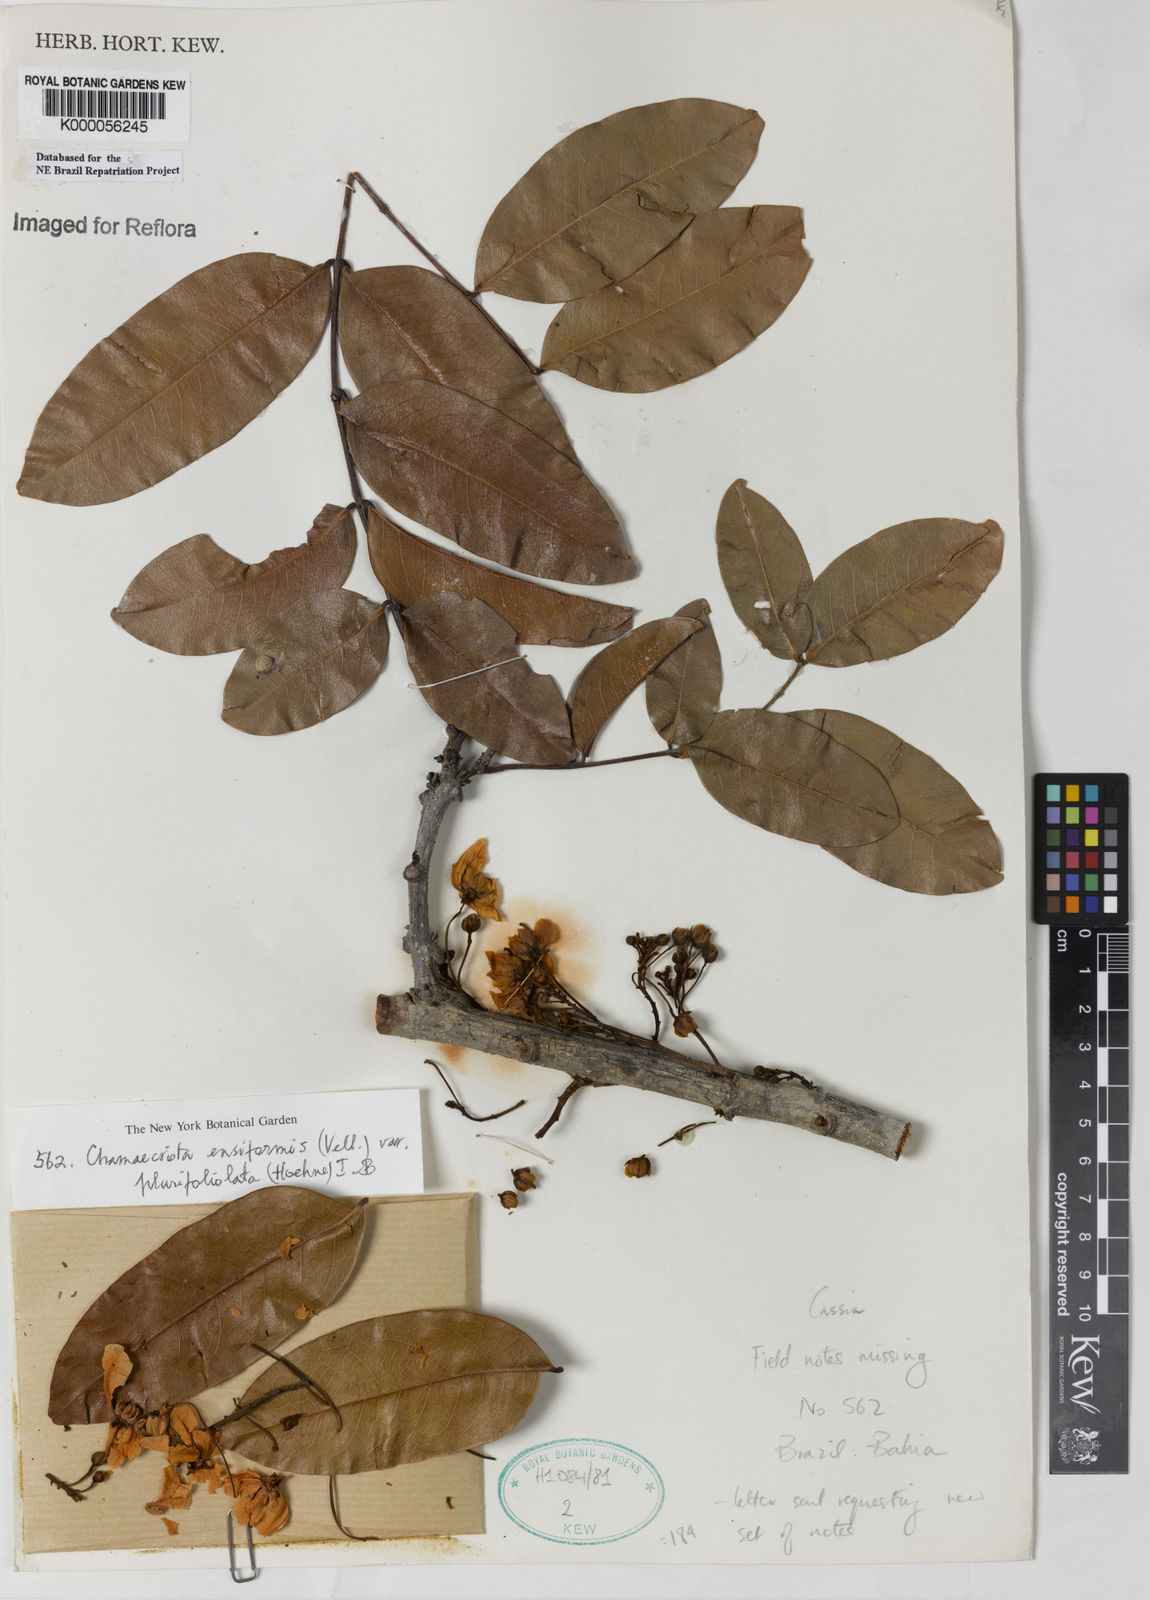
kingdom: Plantae
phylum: Tracheophyta
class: Magnoliopsida
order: Fabales
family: Fabaceae
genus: Chamaecrista
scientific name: Chamaecrista ensiformis
